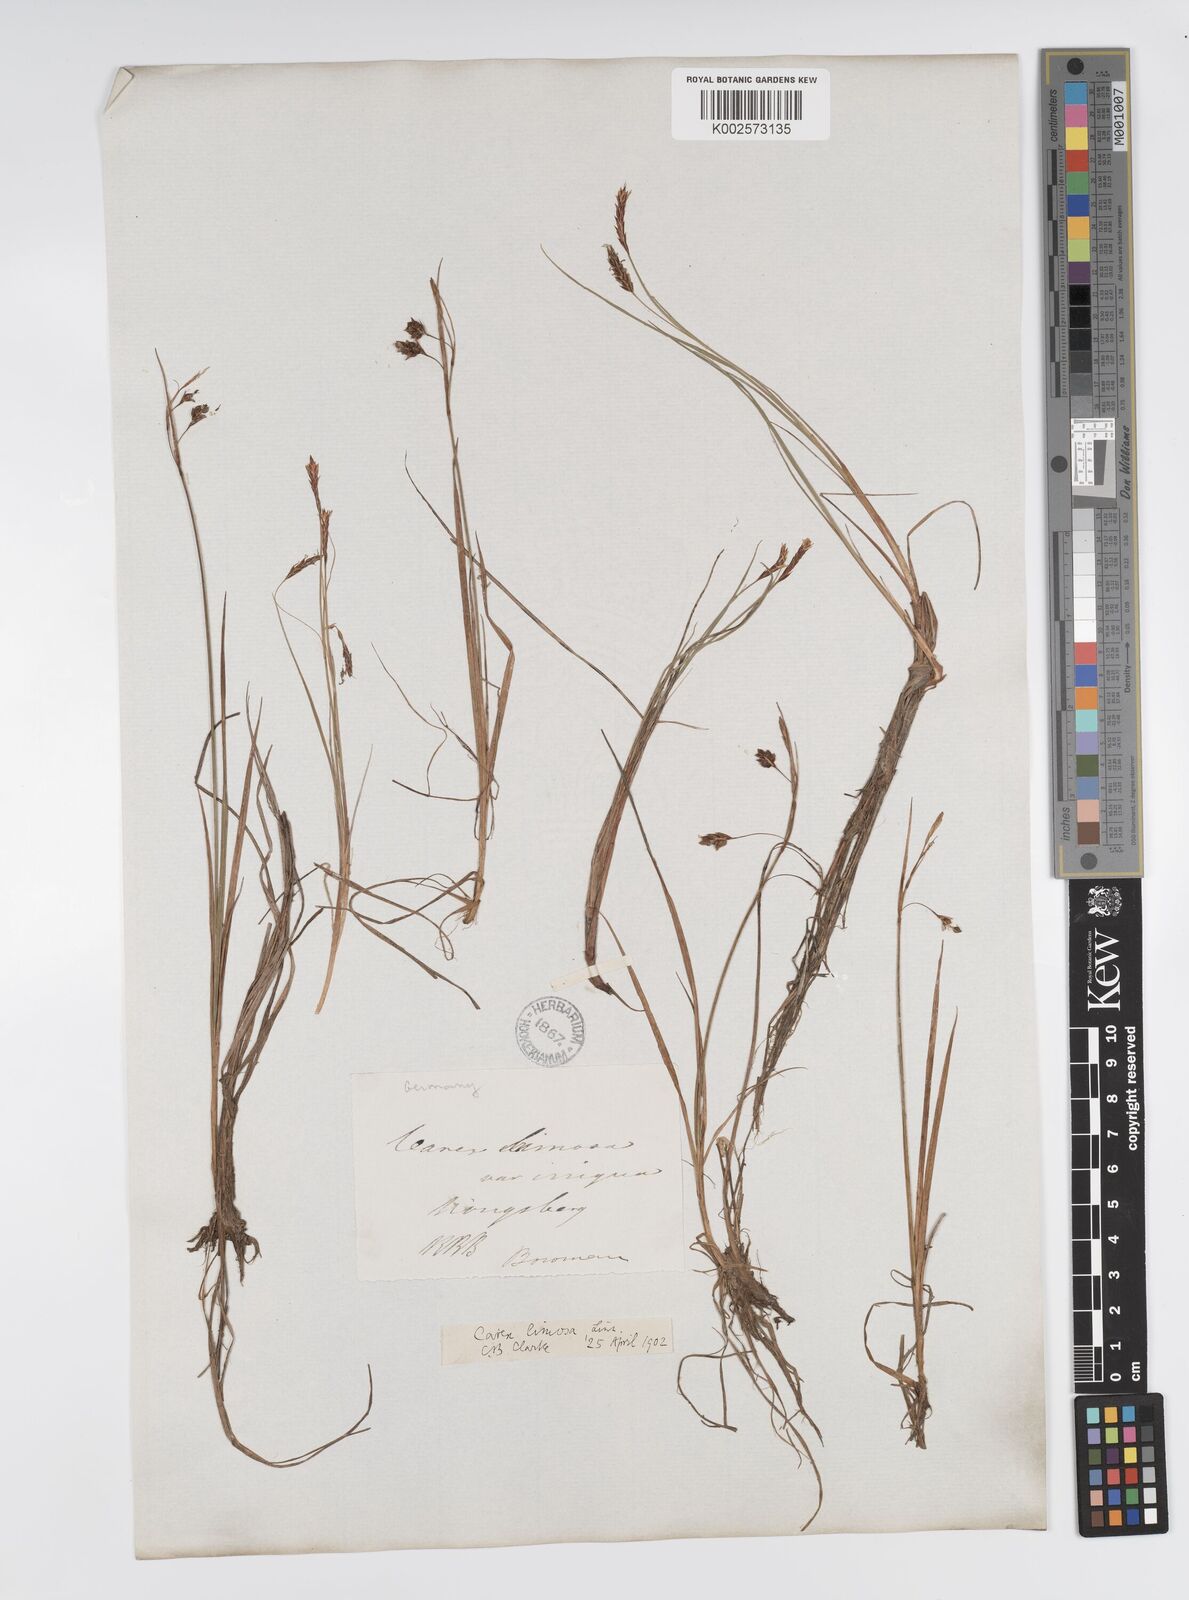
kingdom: Plantae
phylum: Tracheophyta
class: Liliopsida
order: Poales
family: Cyperaceae
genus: Carex
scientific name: Carex limosa
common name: Bog sedge
